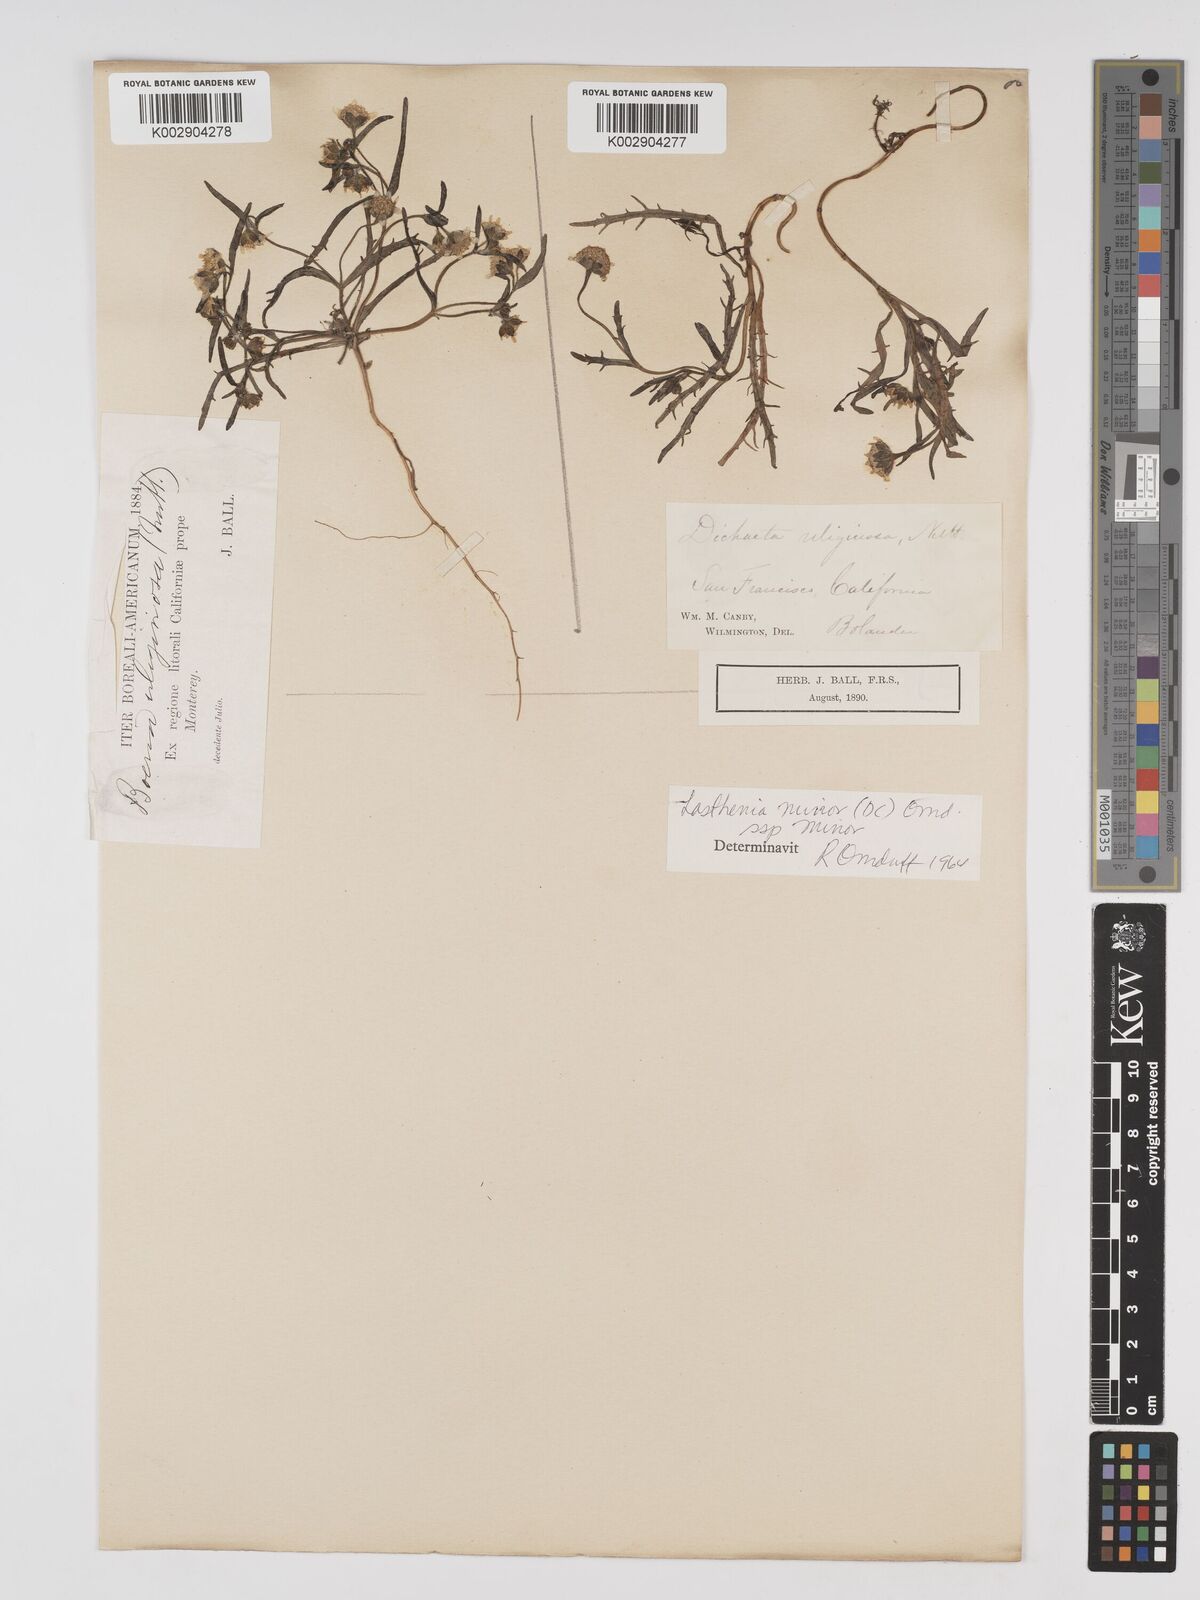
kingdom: Plantae
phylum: Tracheophyta
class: Magnoliopsida
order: Asterales
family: Asteraceae
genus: Lasthenia
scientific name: Lasthenia minor
